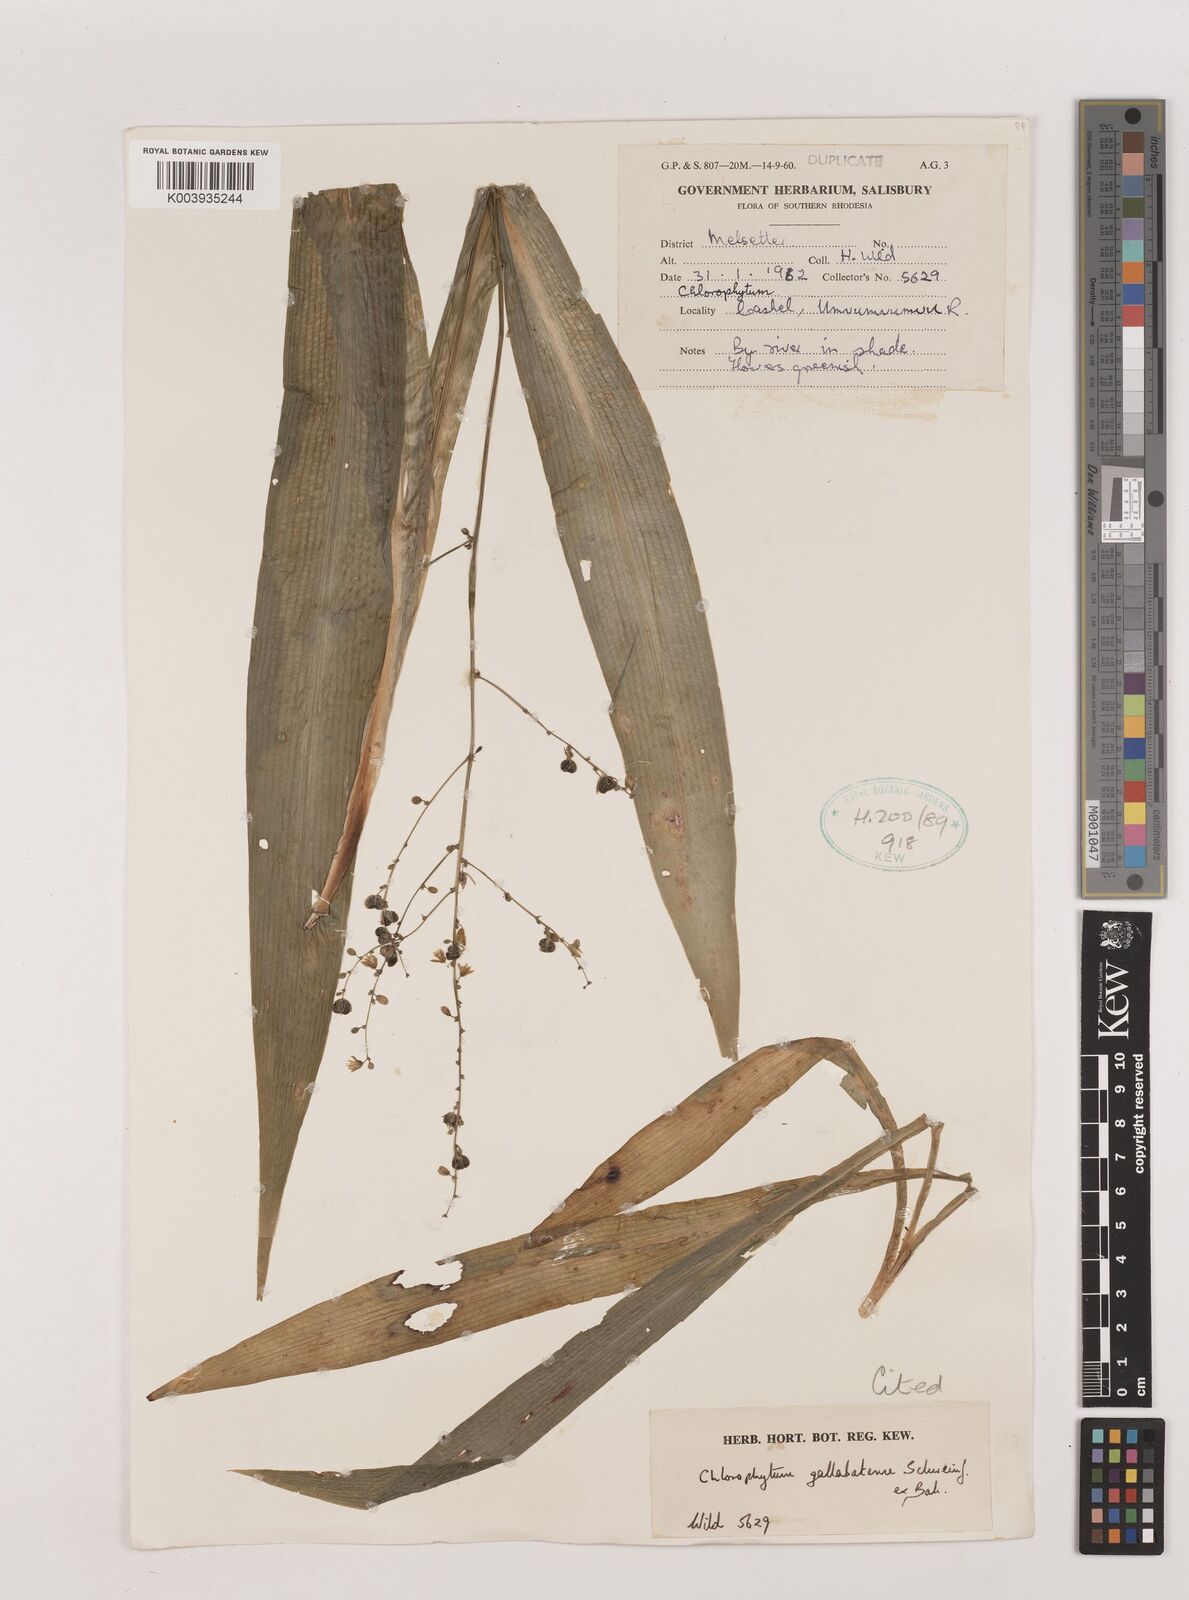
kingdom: Plantae
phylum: Tracheophyta
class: Liliopsida
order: Asparagales
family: Asparagaceae
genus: Chlorophytum
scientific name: Chlorophytum gallabatense
